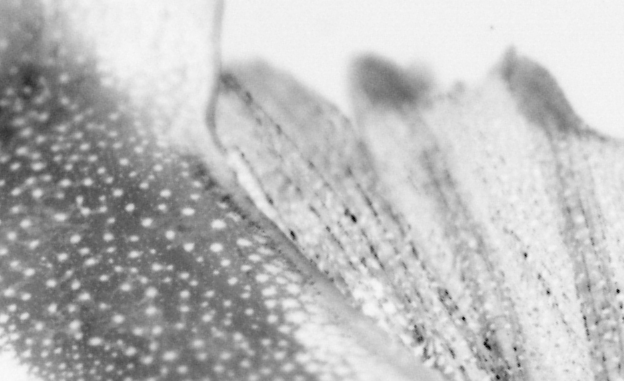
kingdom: Animalia
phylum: Chordata
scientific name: Chordata
